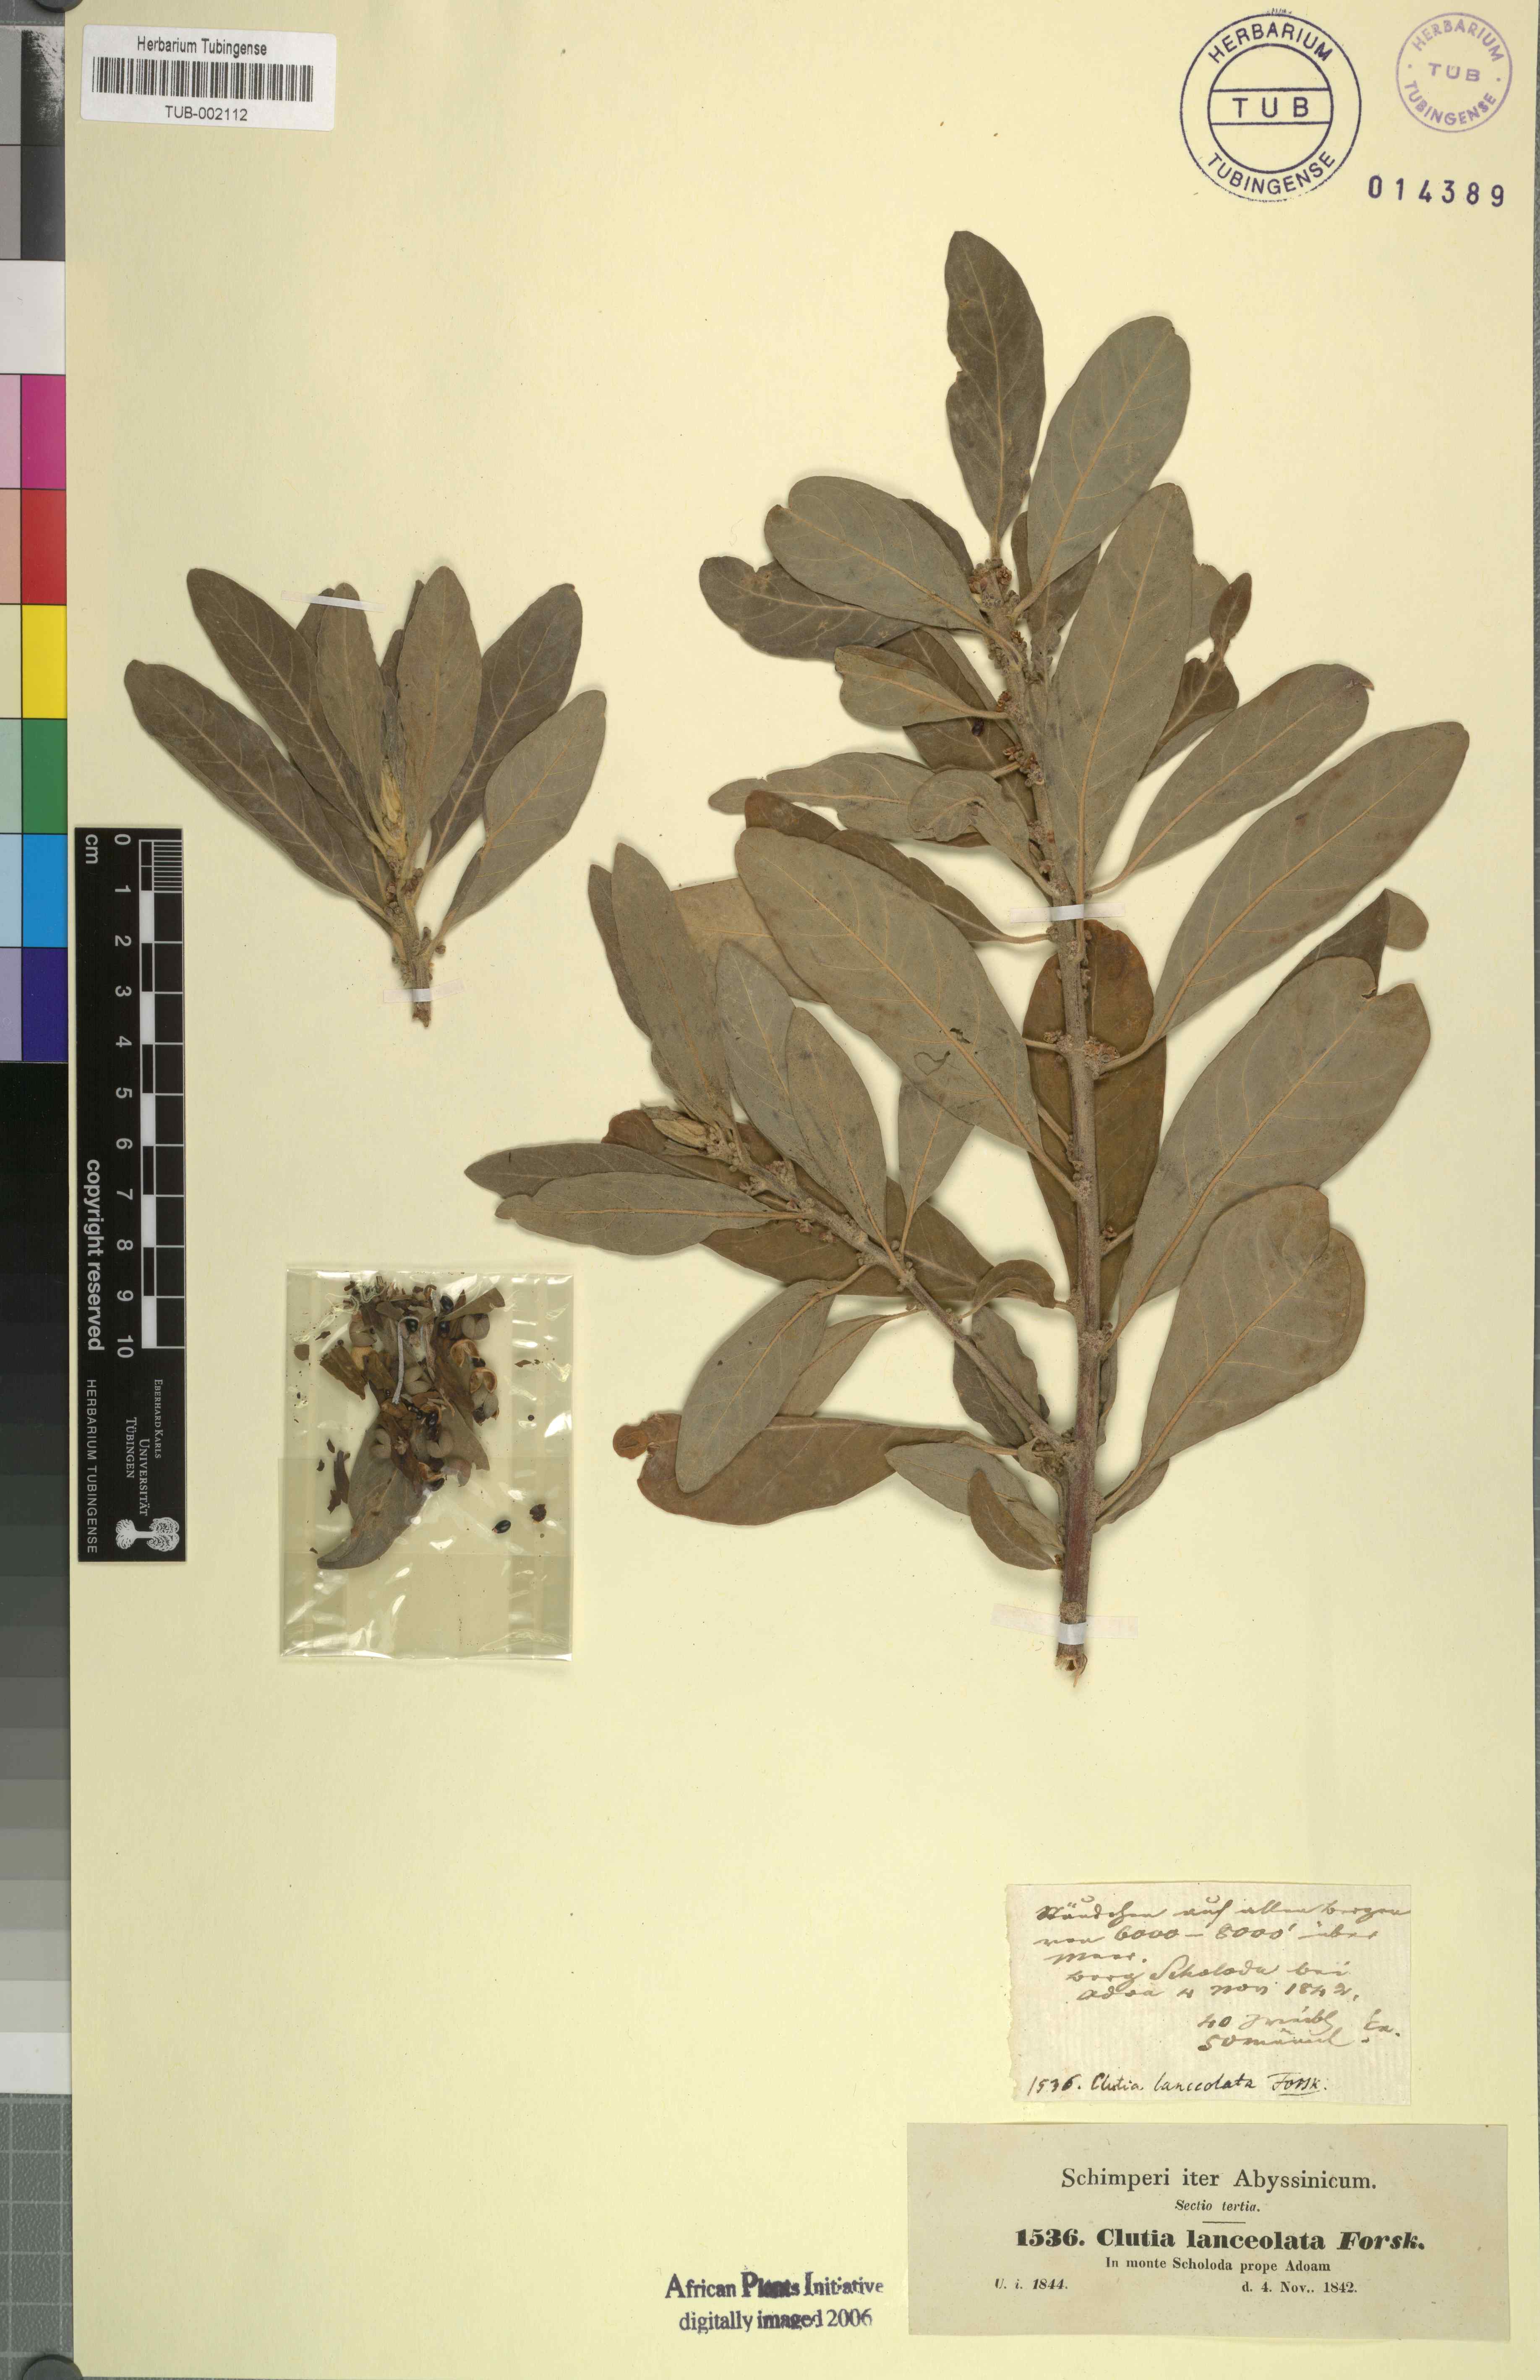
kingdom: Plantae
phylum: Tracheophyta
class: Magnoliopsida
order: Malpighiales
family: Peraceae
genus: Clutia
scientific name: Clutia lanceolata
